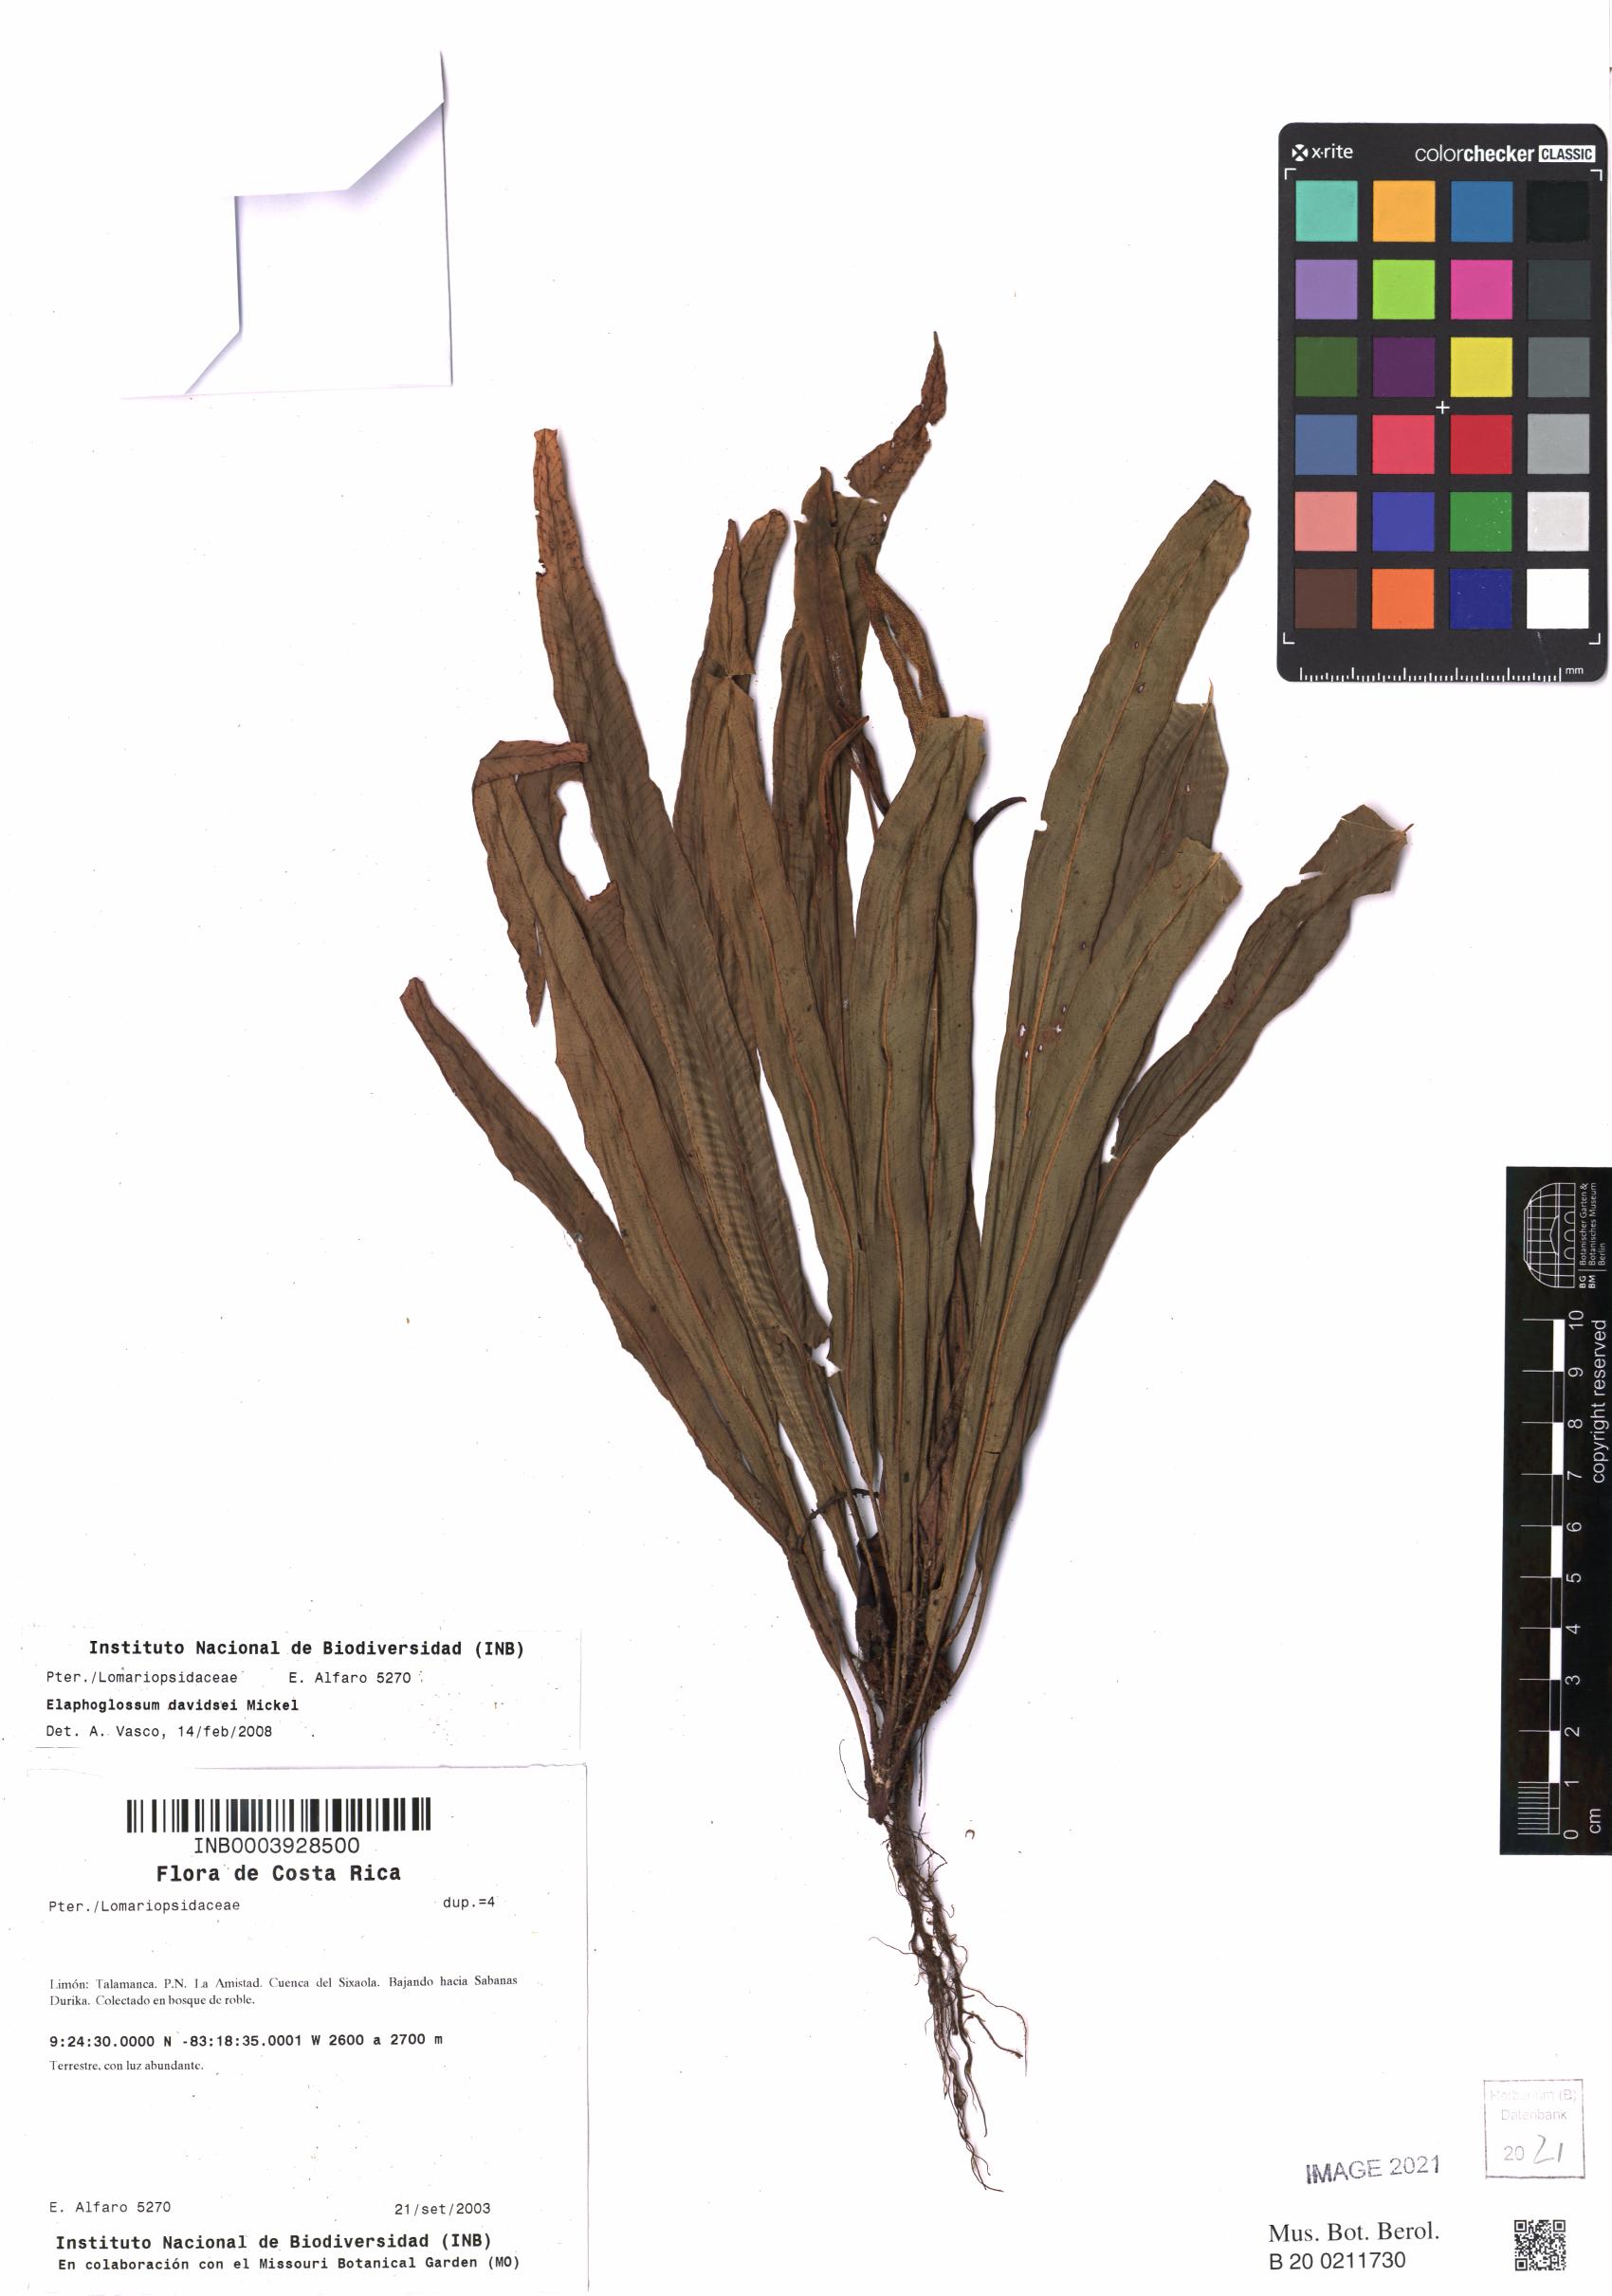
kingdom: Plantae
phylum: Tracheophyta
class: Polypodiopsida
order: Polypodiales
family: Dryopteridaceae
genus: Elaphoglossum
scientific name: Elaphoglossum davidsei
